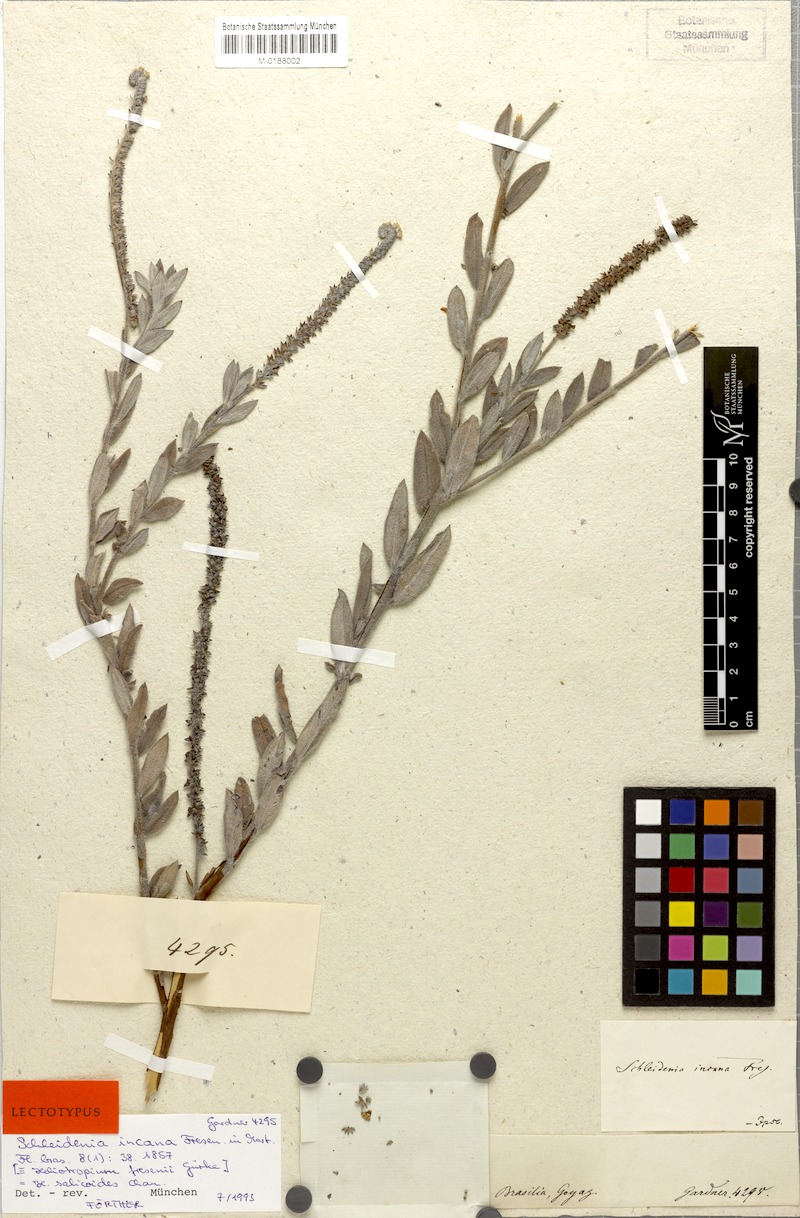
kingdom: Plantae
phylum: Tracheophyta
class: Magnoliopsida
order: Boraginales
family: Heliotropiaceae
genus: Euploca
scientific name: Euploca salicoides
